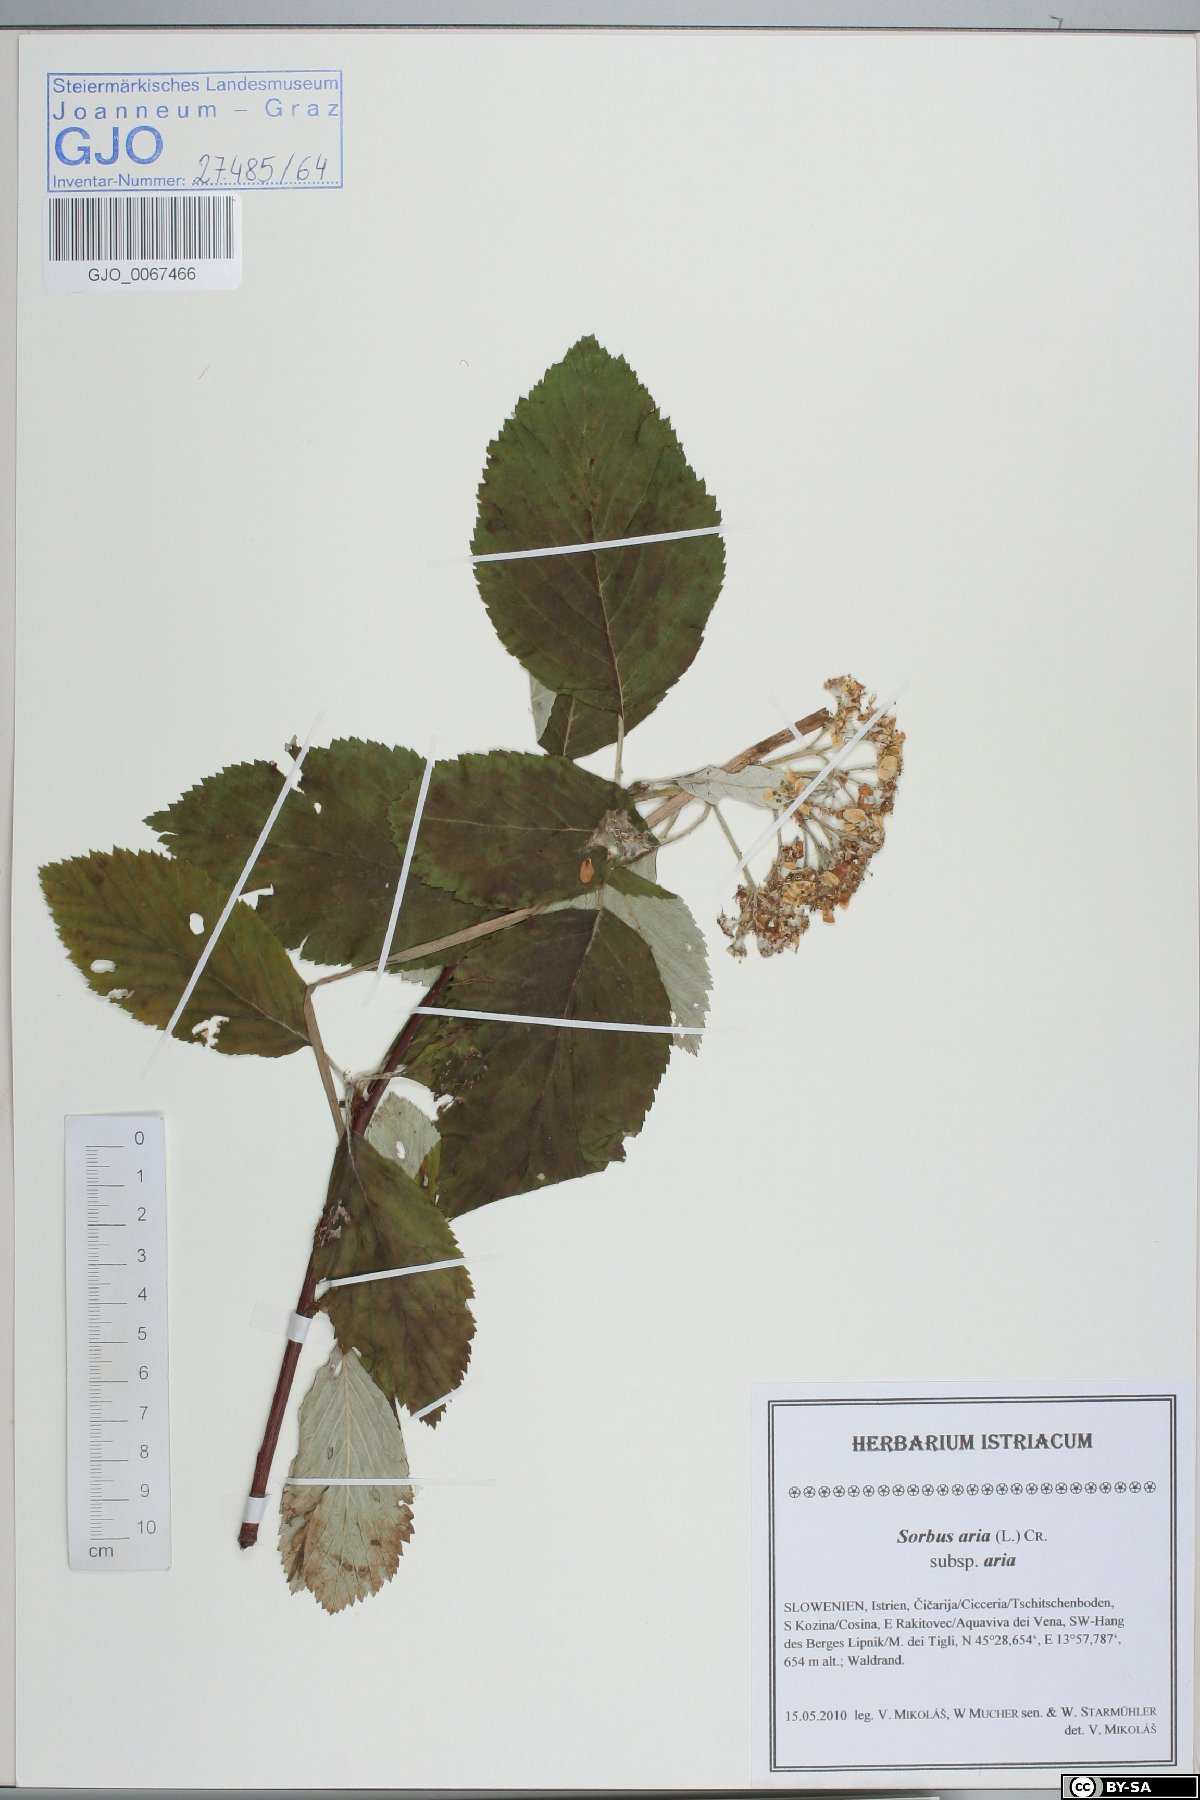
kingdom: Plantae
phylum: Tracheophyta
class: Magnoliopsida
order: Rosales
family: Rosaceae
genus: Aria
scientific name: Aria edulis
